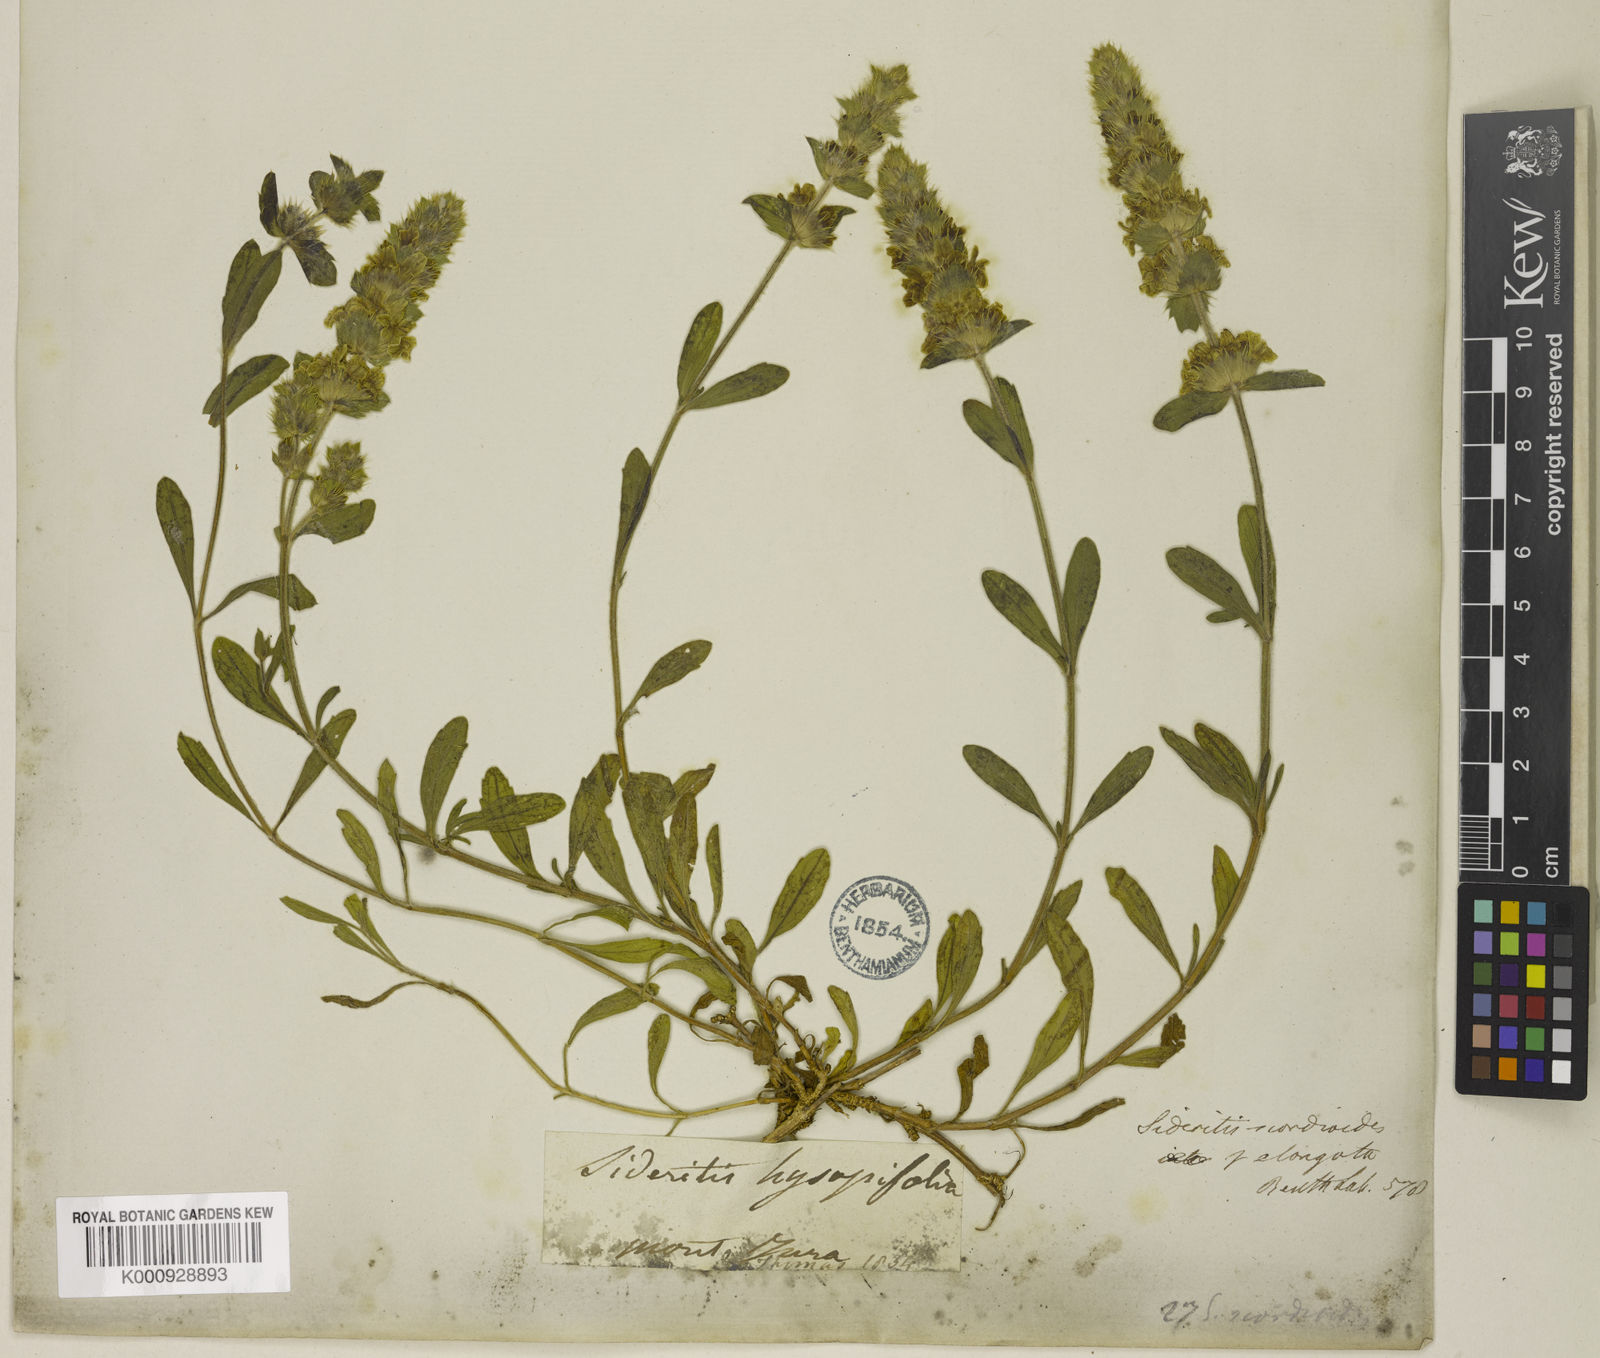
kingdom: Plantae
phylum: Tracheophyta
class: Magnoliopsida
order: Lamiales
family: Lamiaceae
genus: Sideritis
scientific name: Sideritis hyssopifolia
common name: Mountain tea
